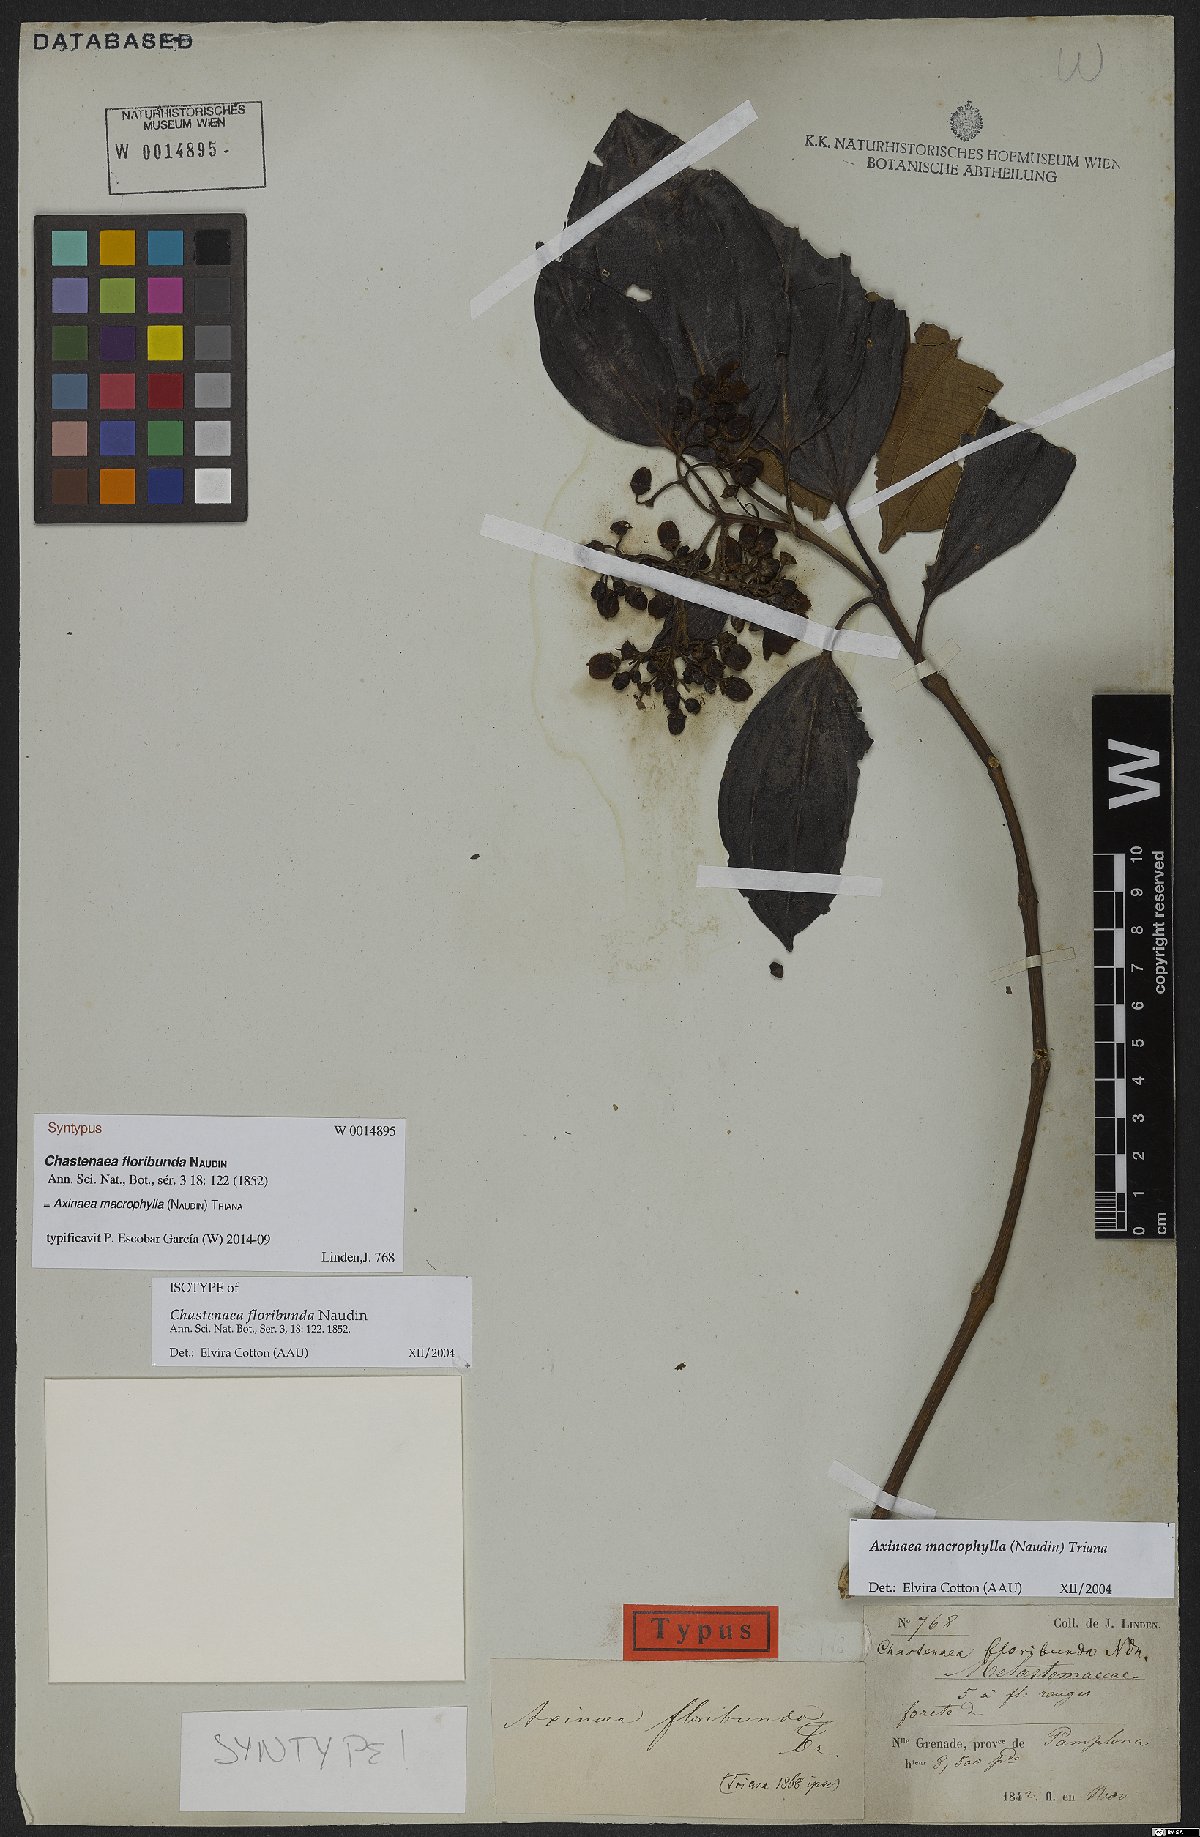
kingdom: Plantae
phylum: Tracheophyta
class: Magnoliopsida
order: Myrtales
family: Melastomataceae
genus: Axinaea
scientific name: Axinaea macrophylla
